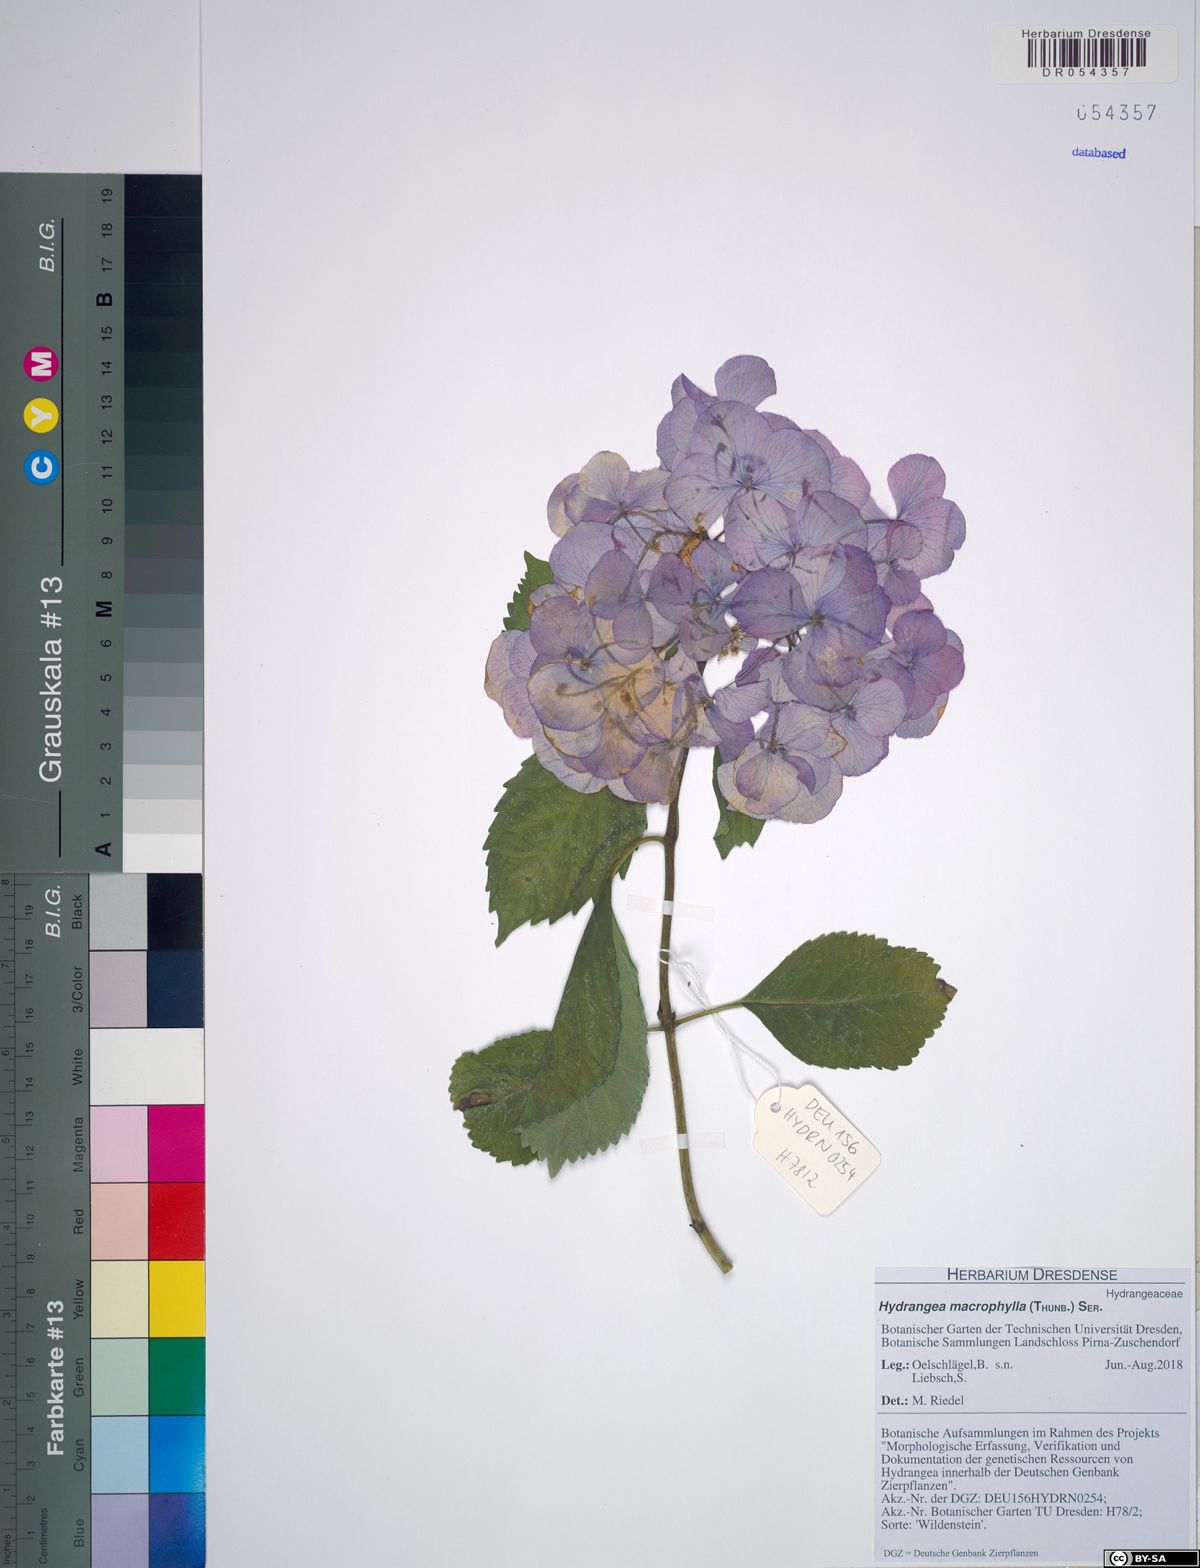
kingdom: Plantae
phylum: Tracheophyta
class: Magnoliopsida
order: Cornales
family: Hydrangeaceae
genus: Hydrangea
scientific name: Hydrangea macrophylla
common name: Hydrangea
